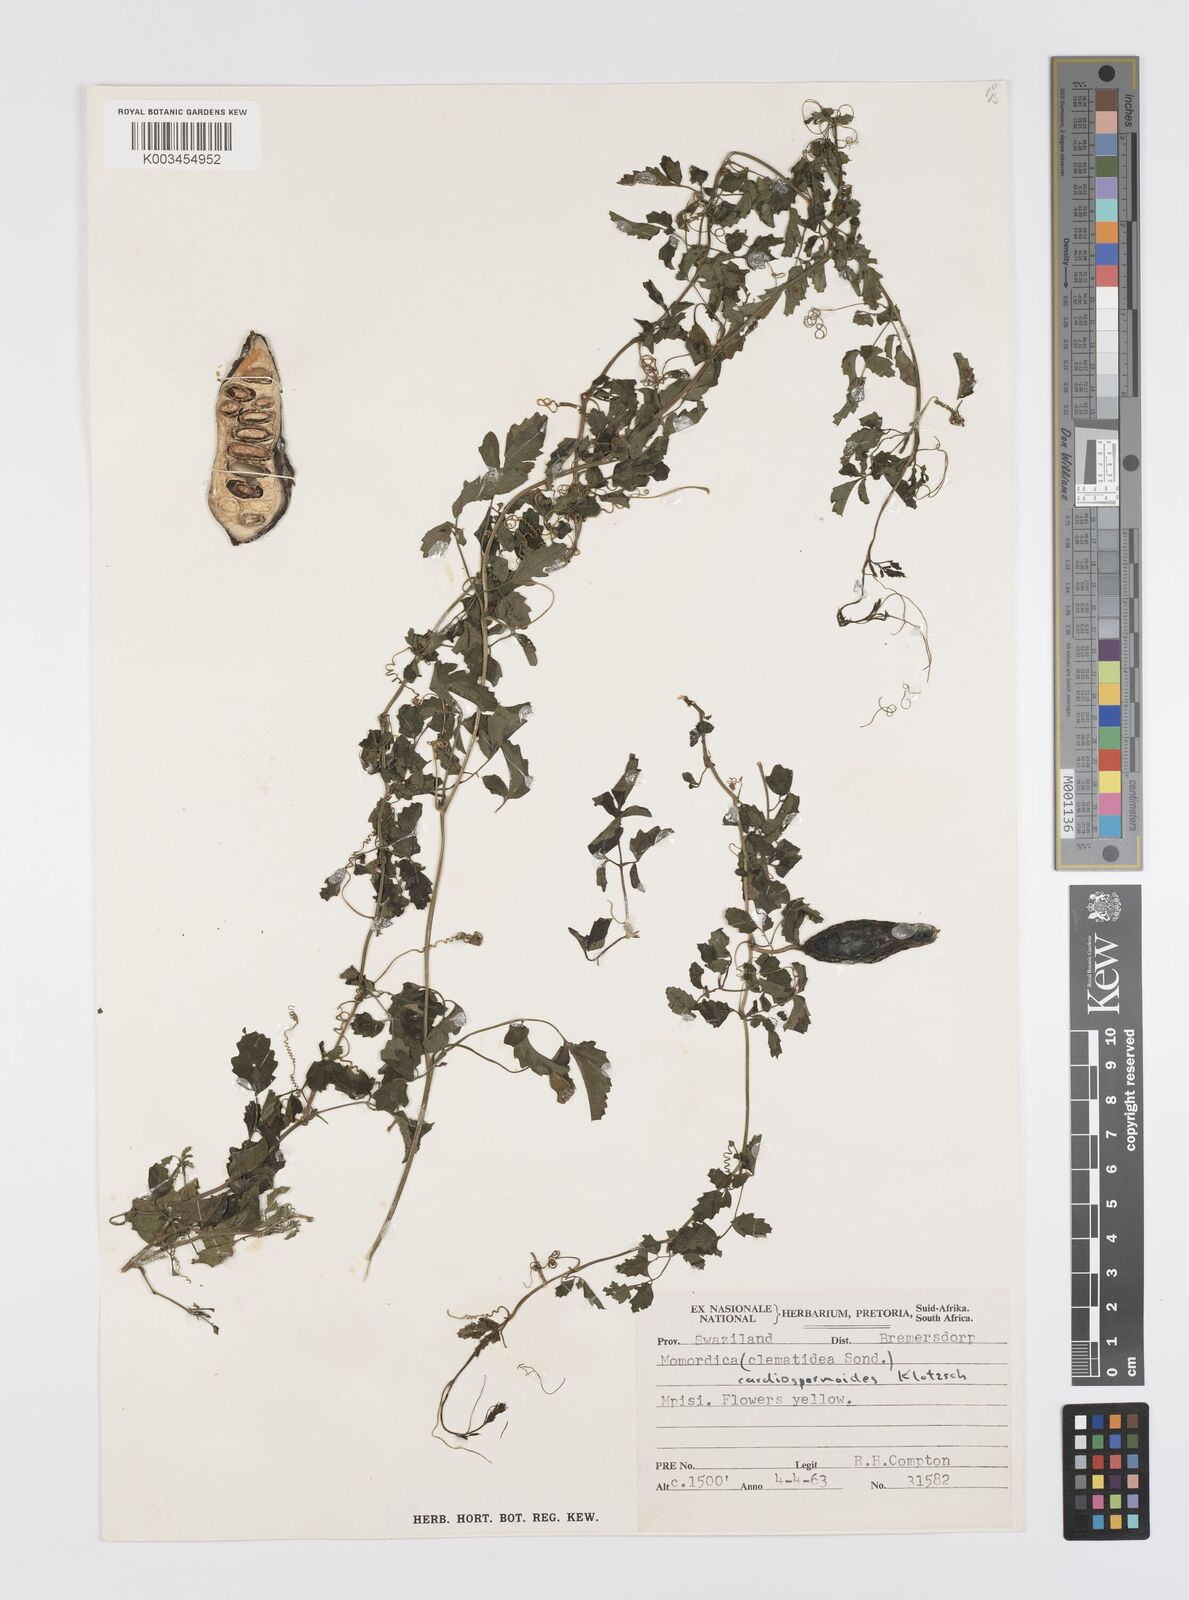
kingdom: Plantae
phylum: Tracheophyta
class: Magnoliopsida
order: Cucurbitales
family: Cucurbitaceae
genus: Momordica
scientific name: Momordica cardiospermoides
